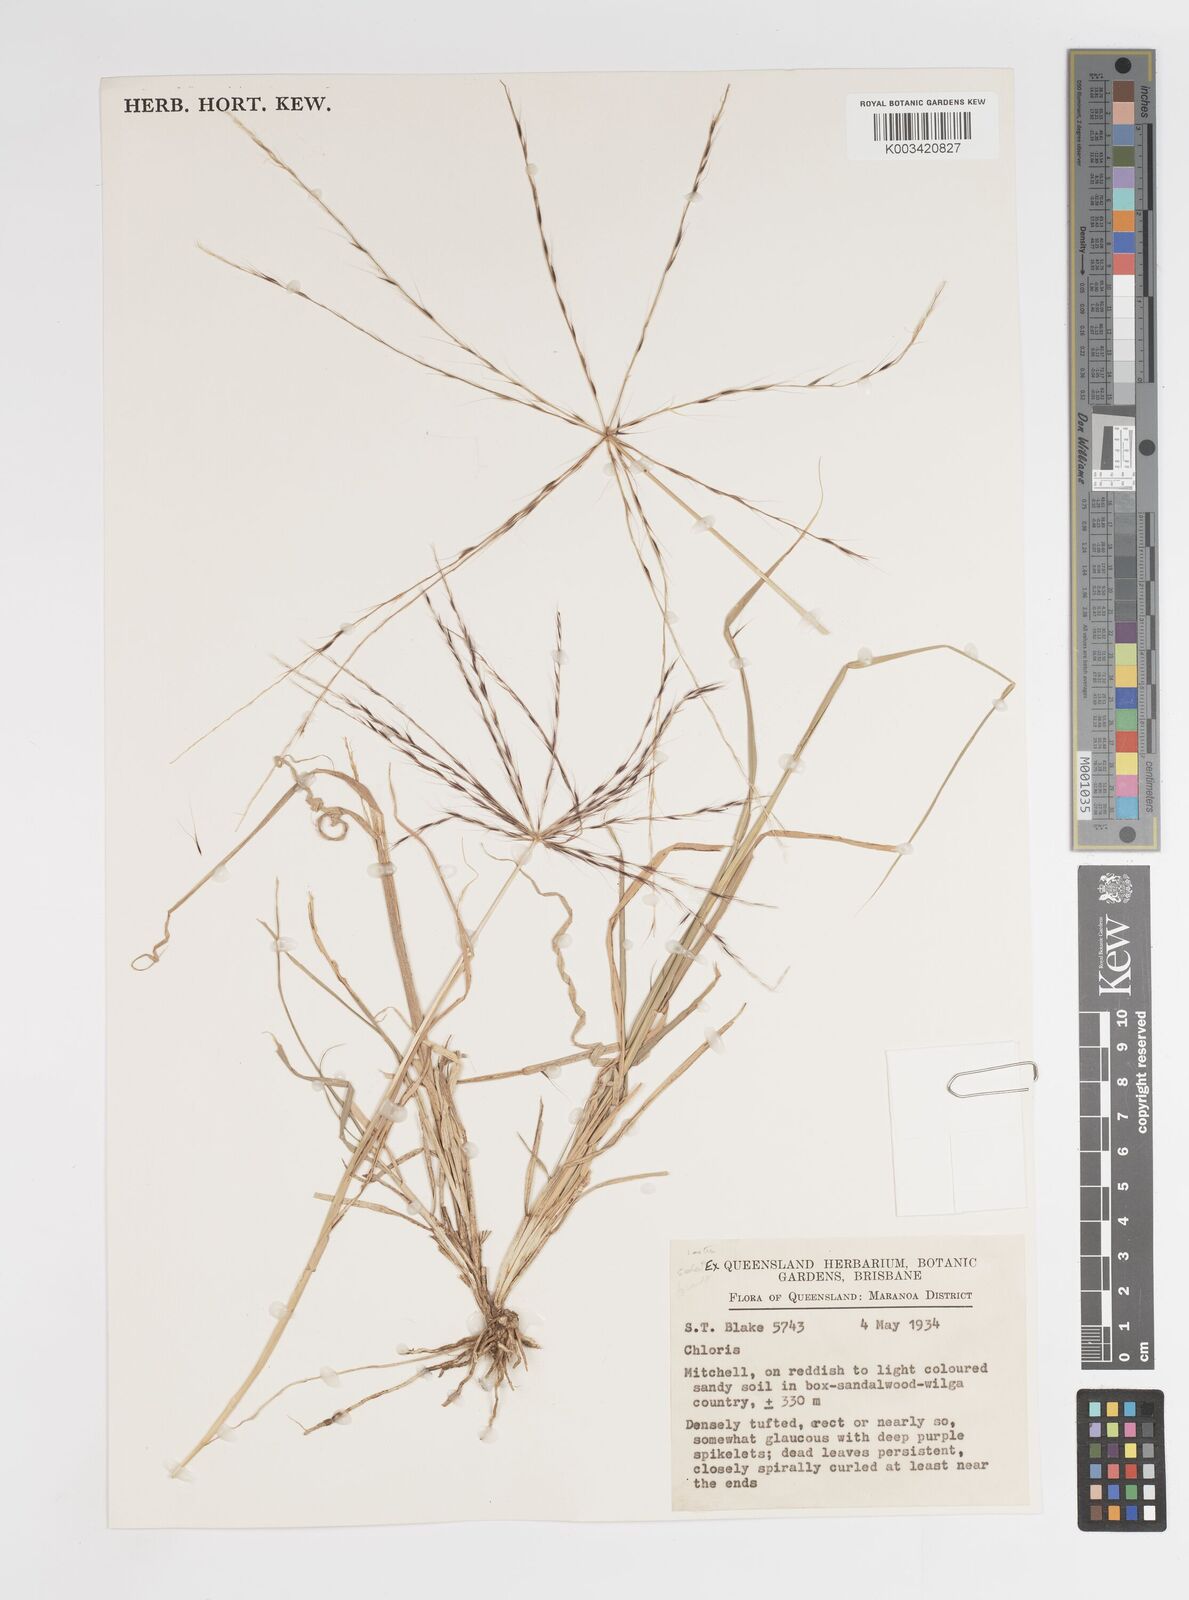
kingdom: Plantae
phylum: Tracheophyta
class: Liliopsida
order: Poales
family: Poaceae
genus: Enteropogon
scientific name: Enteropogon acicularis
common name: Curly windmill grass
